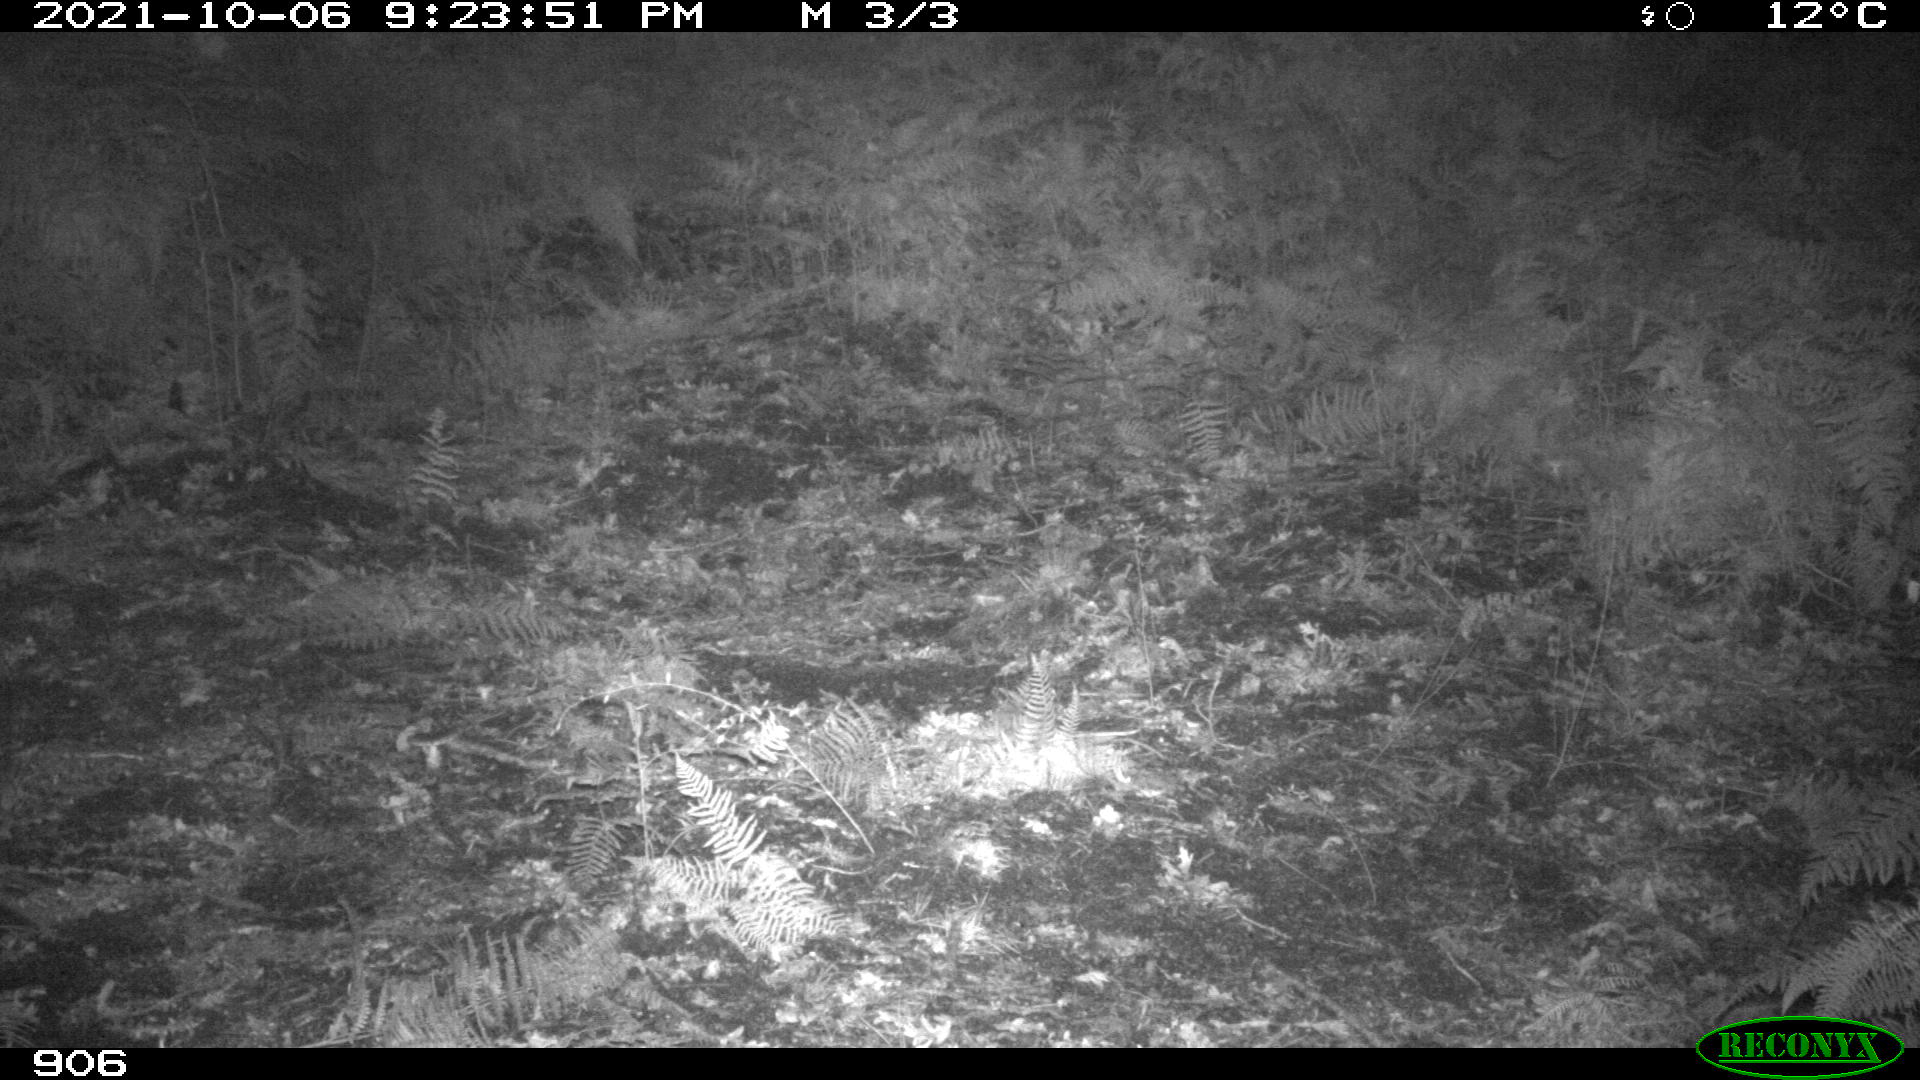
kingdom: Animalia
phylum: Chordata
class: Mammalia
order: Artiodactyla
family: Cervidae
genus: Capreolus
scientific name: Capreolus capreolus
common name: Western roe deer
